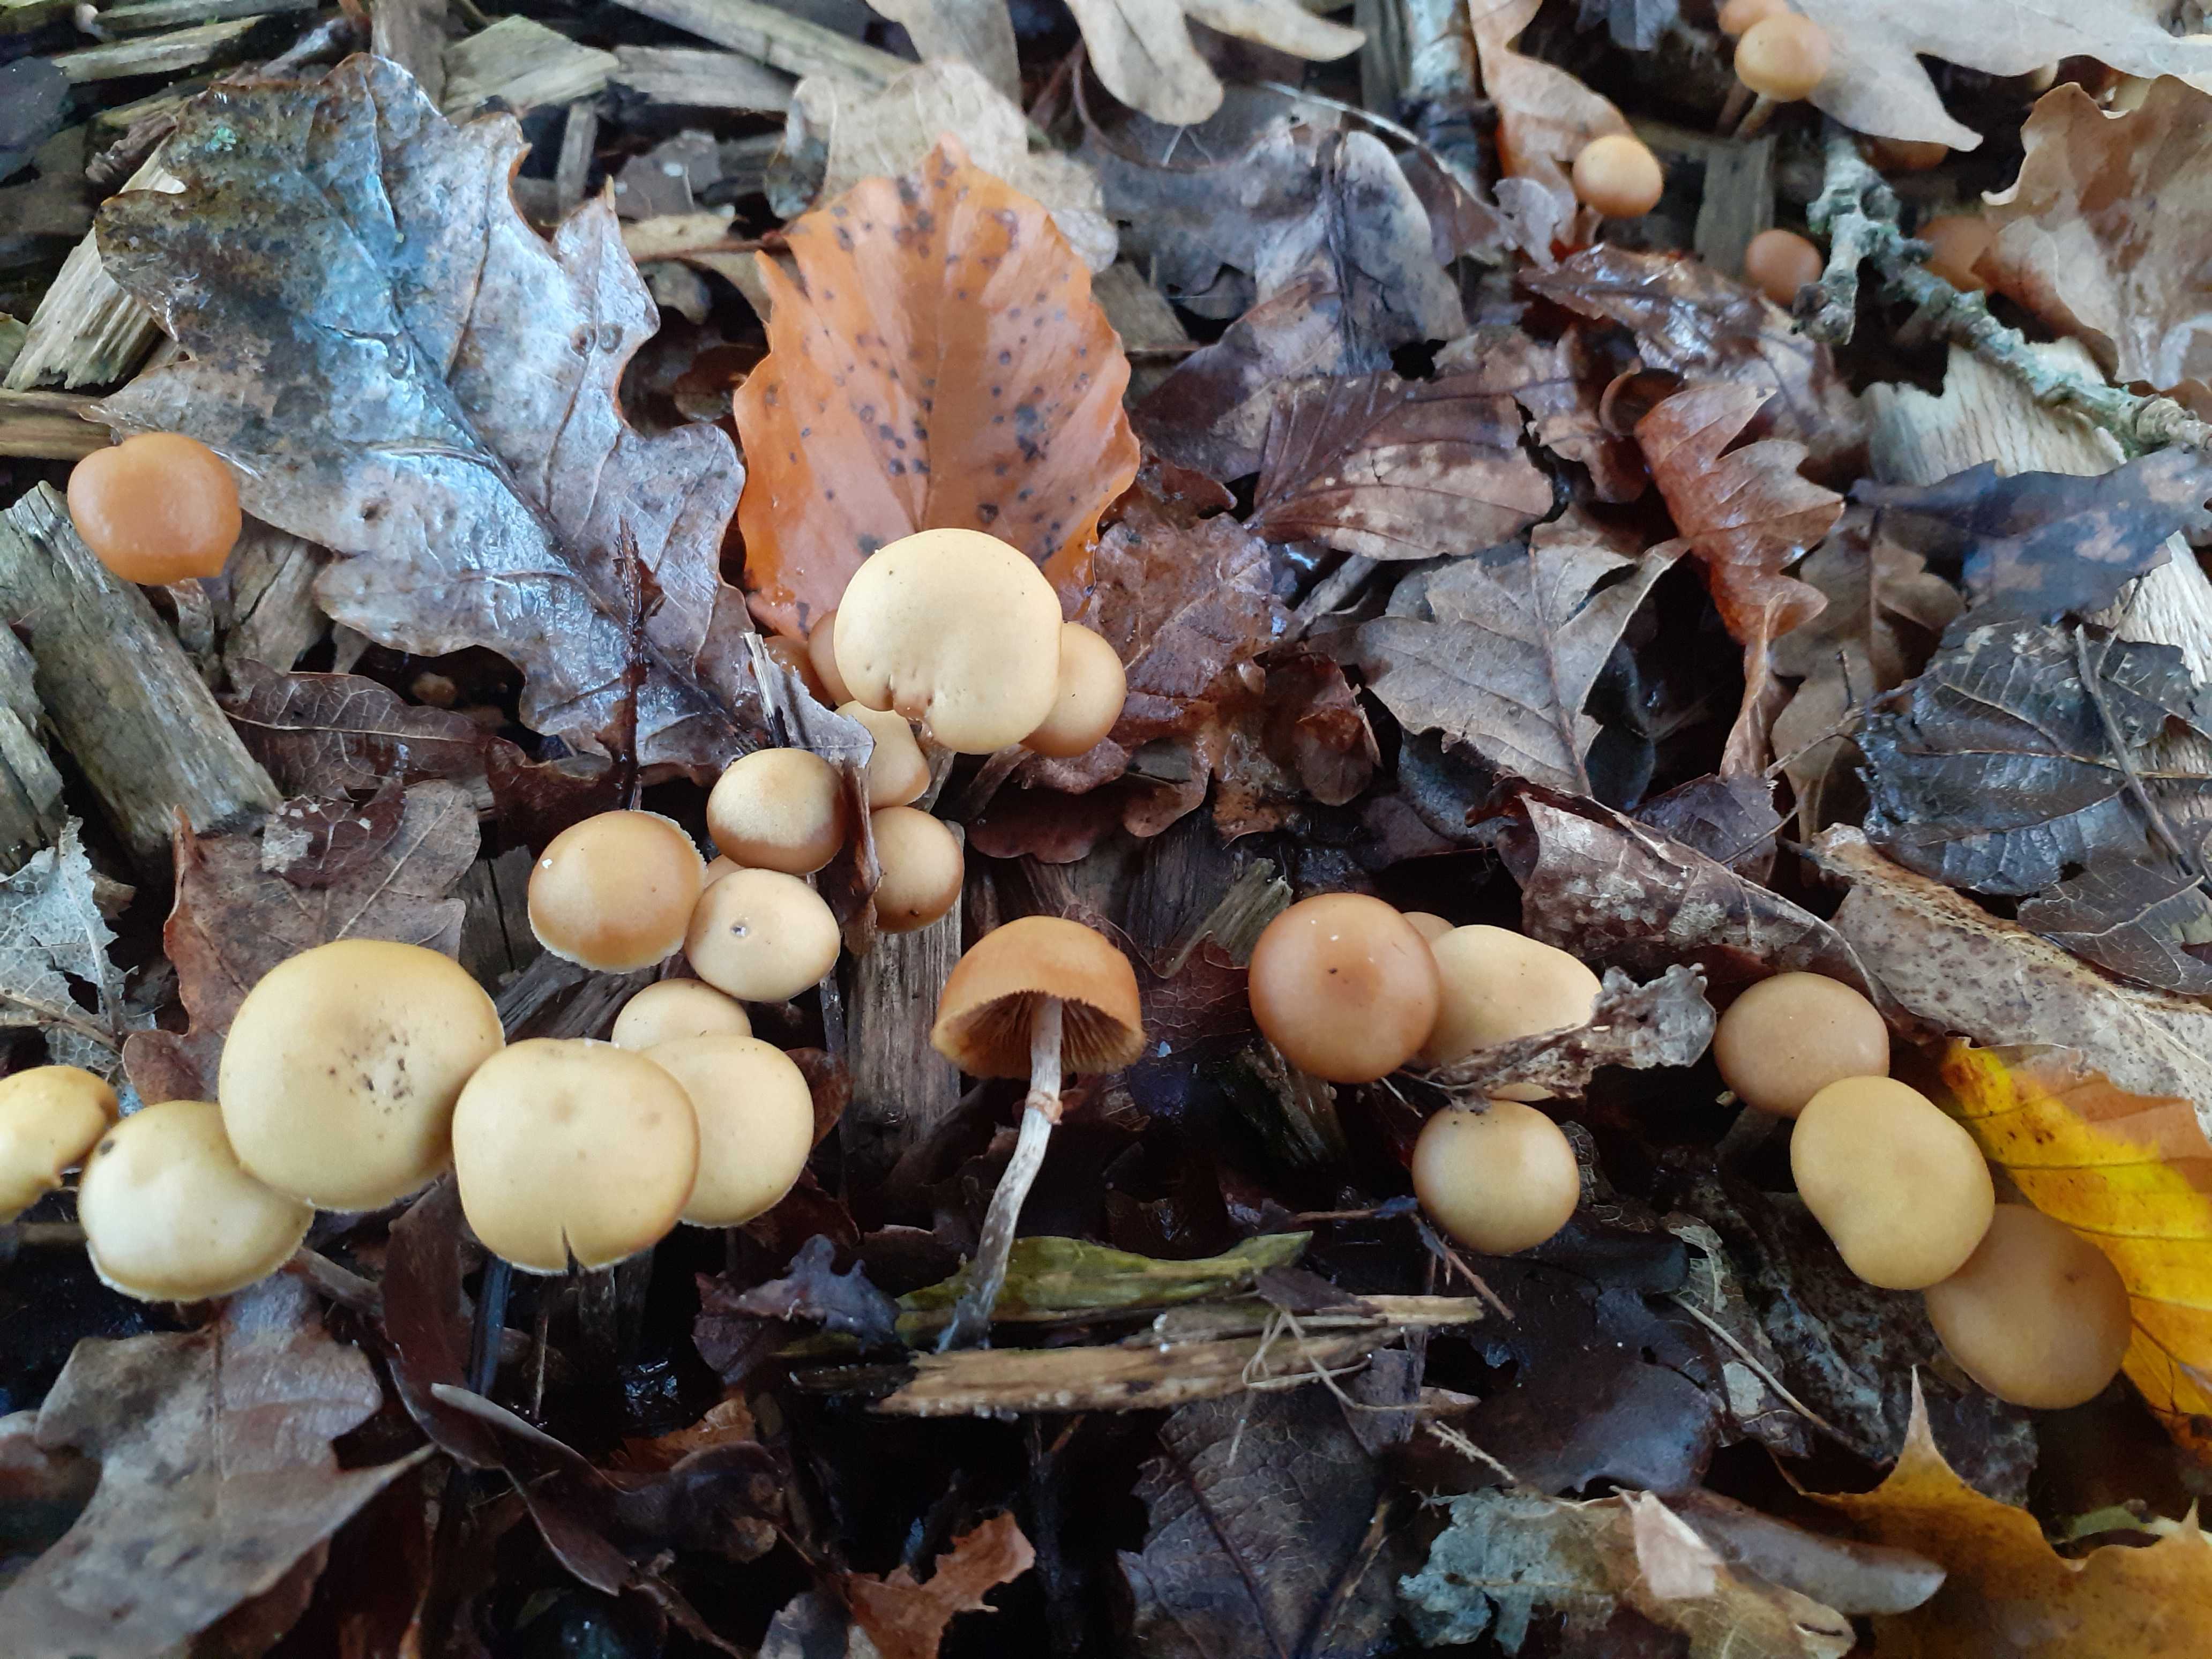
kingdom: Fungi
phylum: Basidiomycota
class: Agaricomycetes
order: Agaricales
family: Hymenogastraceae
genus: Galerina
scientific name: Galerina marginata
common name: randbæltet hjelmhat
